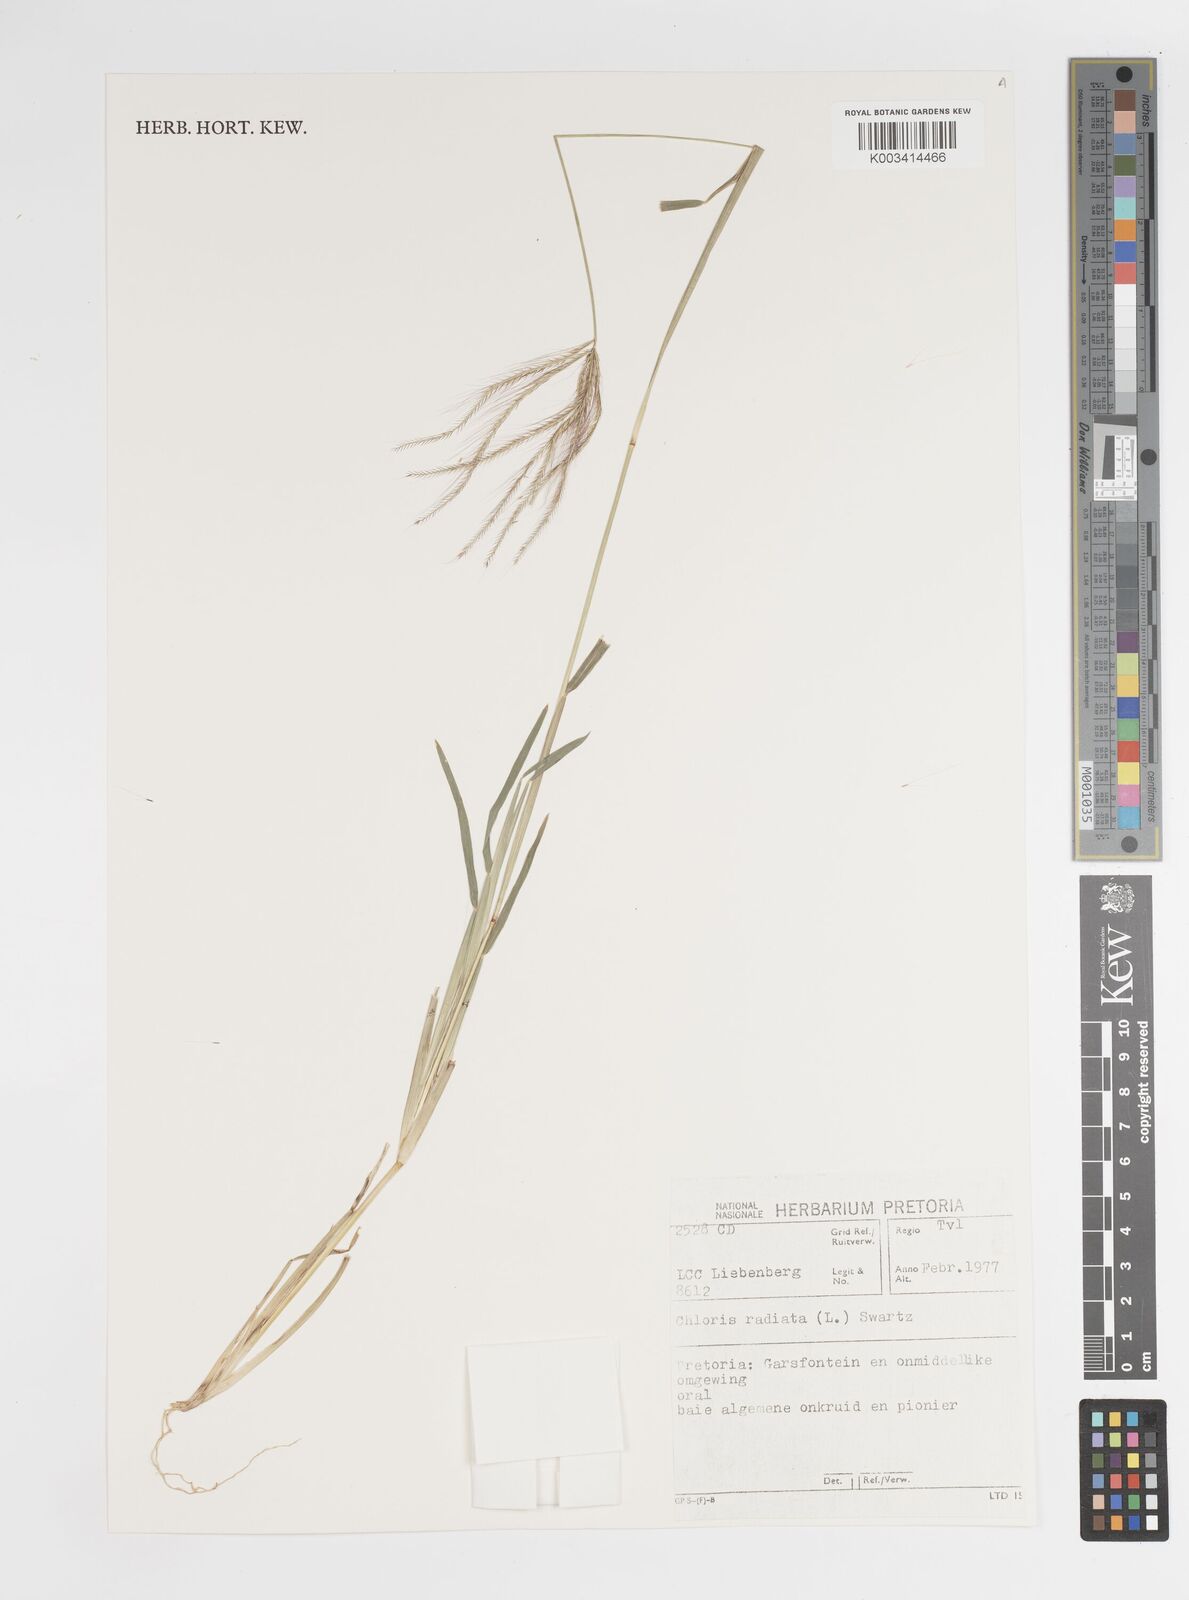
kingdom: Plantae
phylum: Tracheophyta
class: Liliopsida
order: Poales
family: Poaceae
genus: Chloris
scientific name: Chloris radiata
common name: Radiate fingergrass
